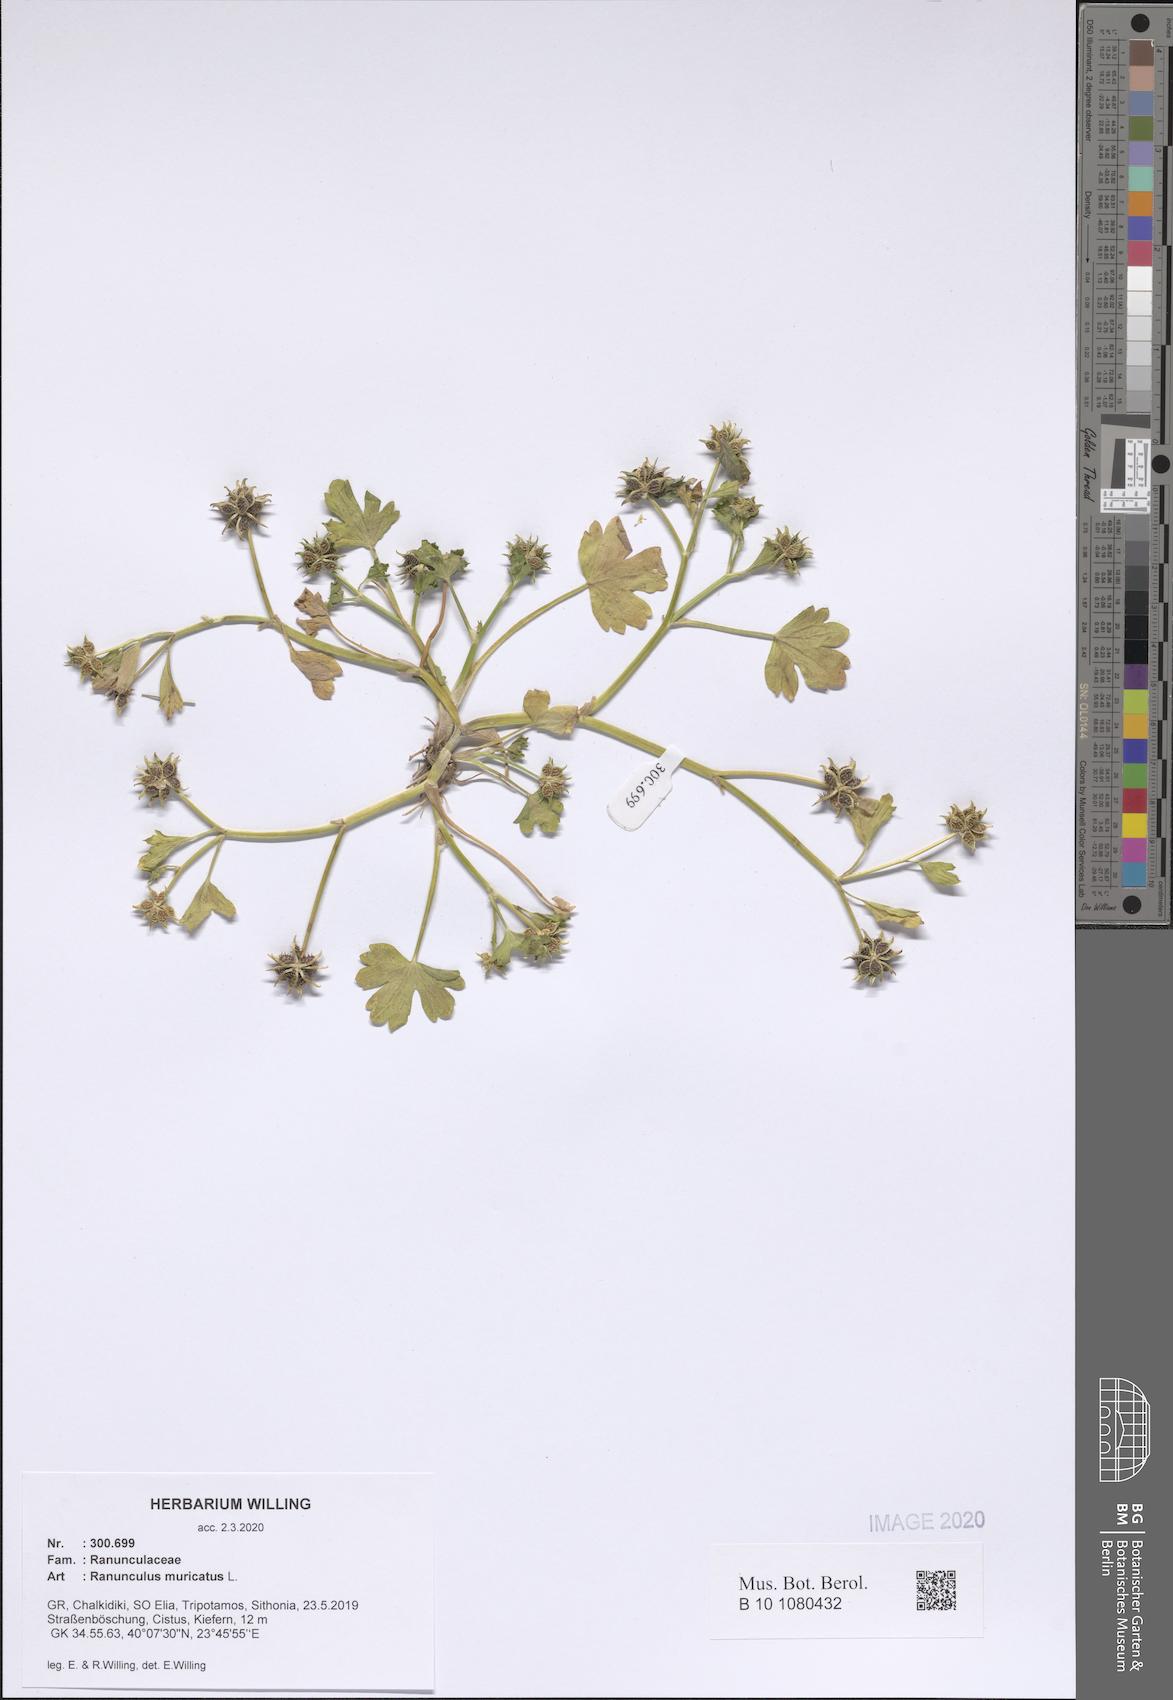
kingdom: Plantae
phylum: Tracheophyta
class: Magnoliopsida
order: Ranunculales
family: Ranunculaceae
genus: Ranunculus
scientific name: Ranunculus muricatus
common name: Rough-fruited buttercup
